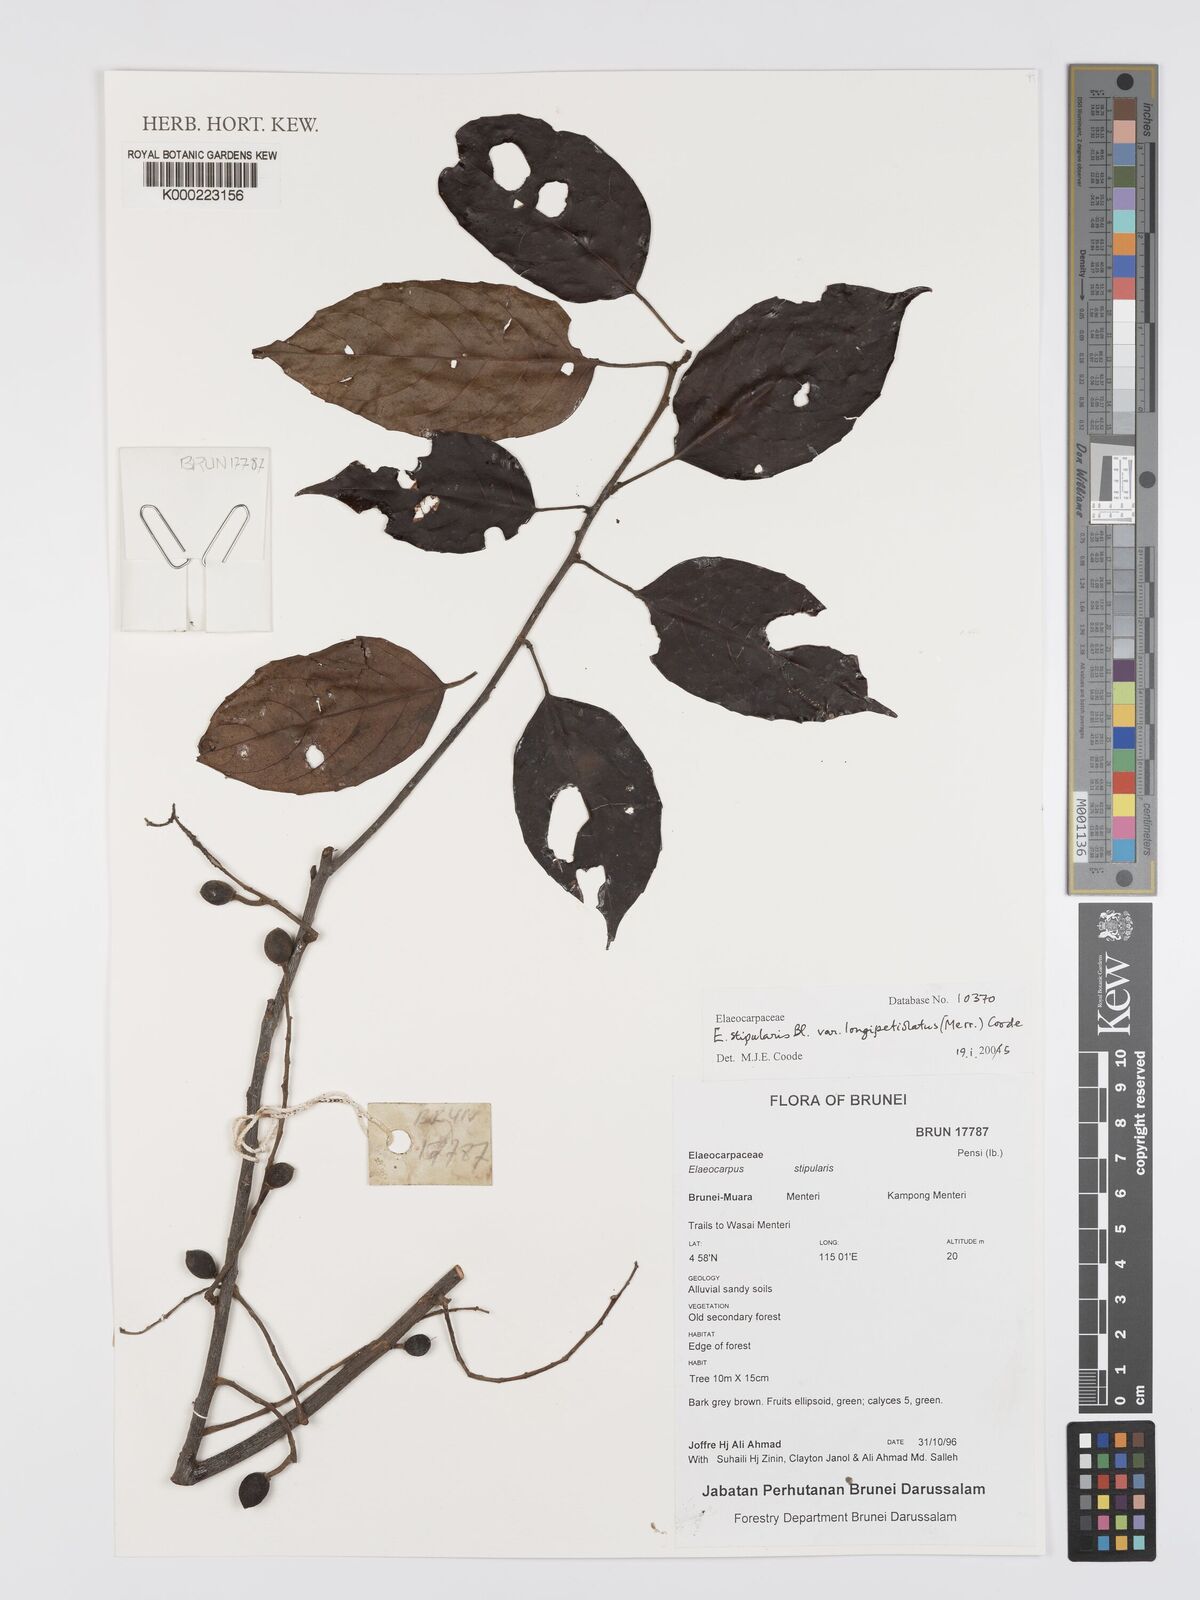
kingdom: Plantae
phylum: Tracheophyta
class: Magnoliopsida
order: Oxalidales
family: Elaeocarpaceae
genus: Elaeocarpus
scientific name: Elaeocarpus stipularis
